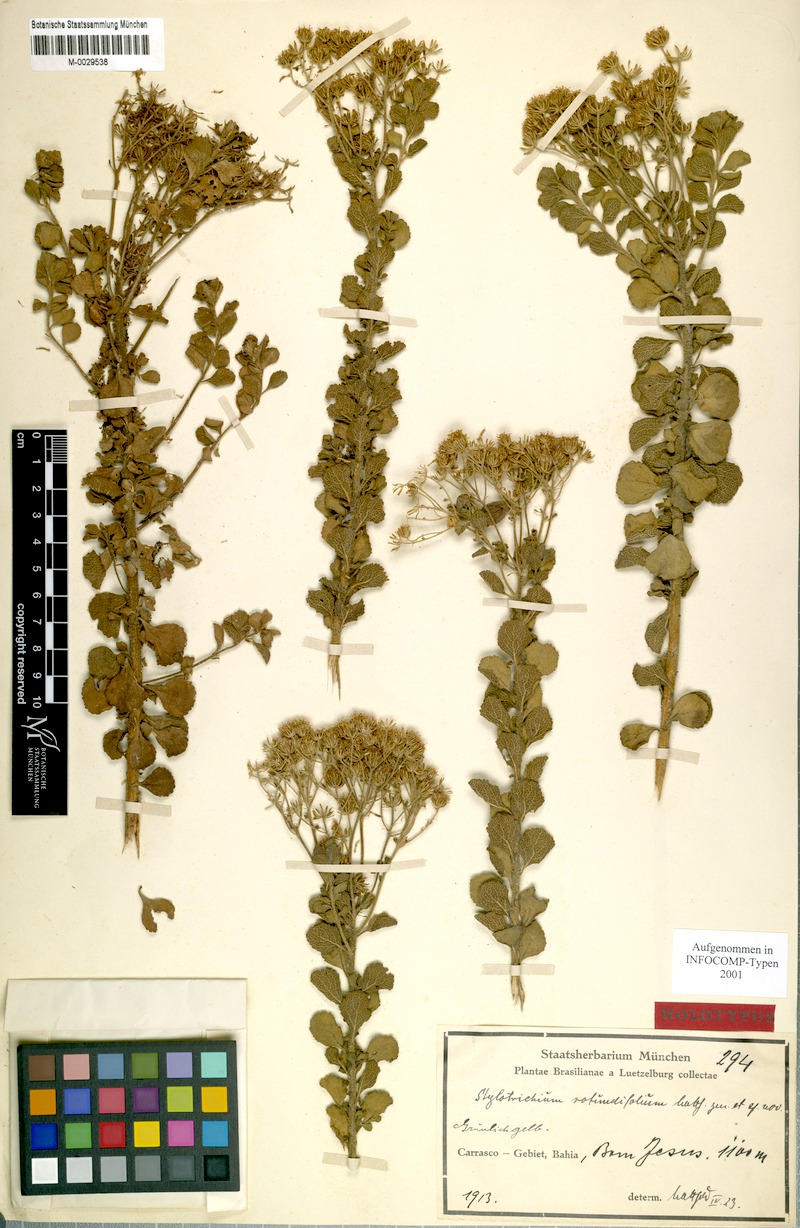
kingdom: Plantae
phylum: Tracheophyta
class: Magnoliopsida
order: Asterales
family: Asteraceae
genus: Stylotrichium
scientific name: Stylotrichium rotundifolium
